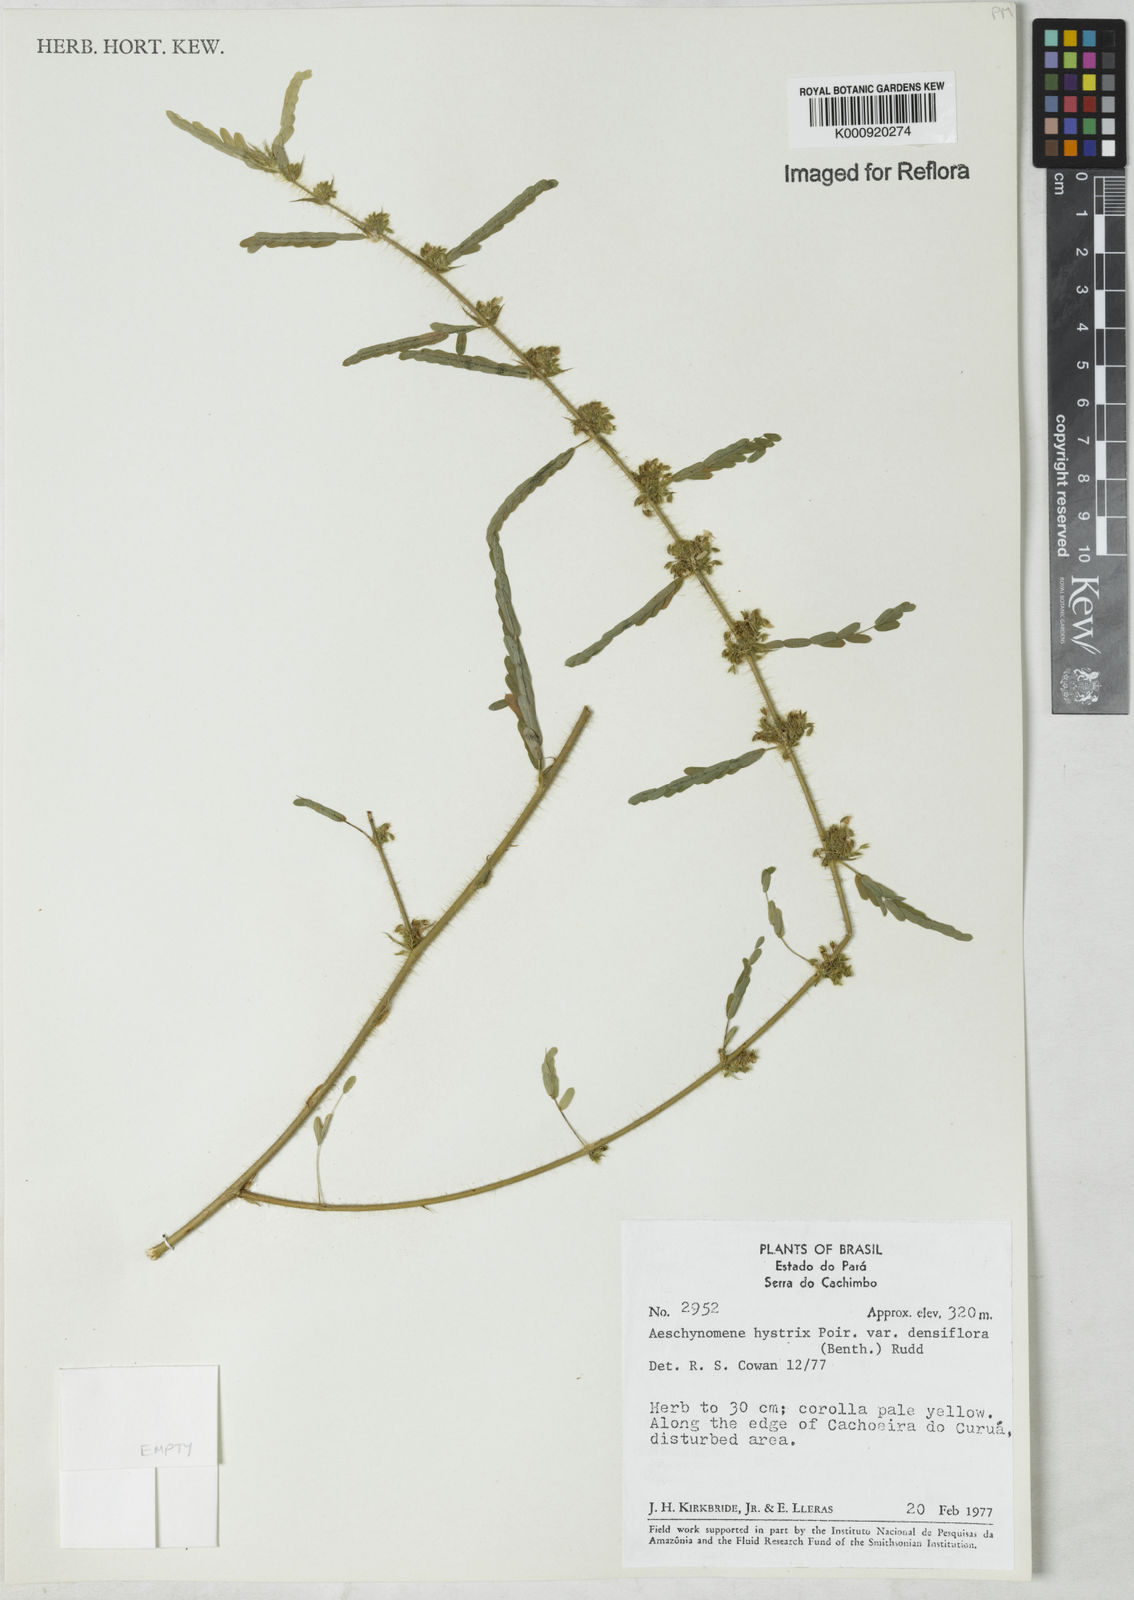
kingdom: Plantae
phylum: Tracheophyta
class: Magnoliopsida
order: Fabales
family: Fabaceae
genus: Ctenodon
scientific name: Ctenodon histrix
